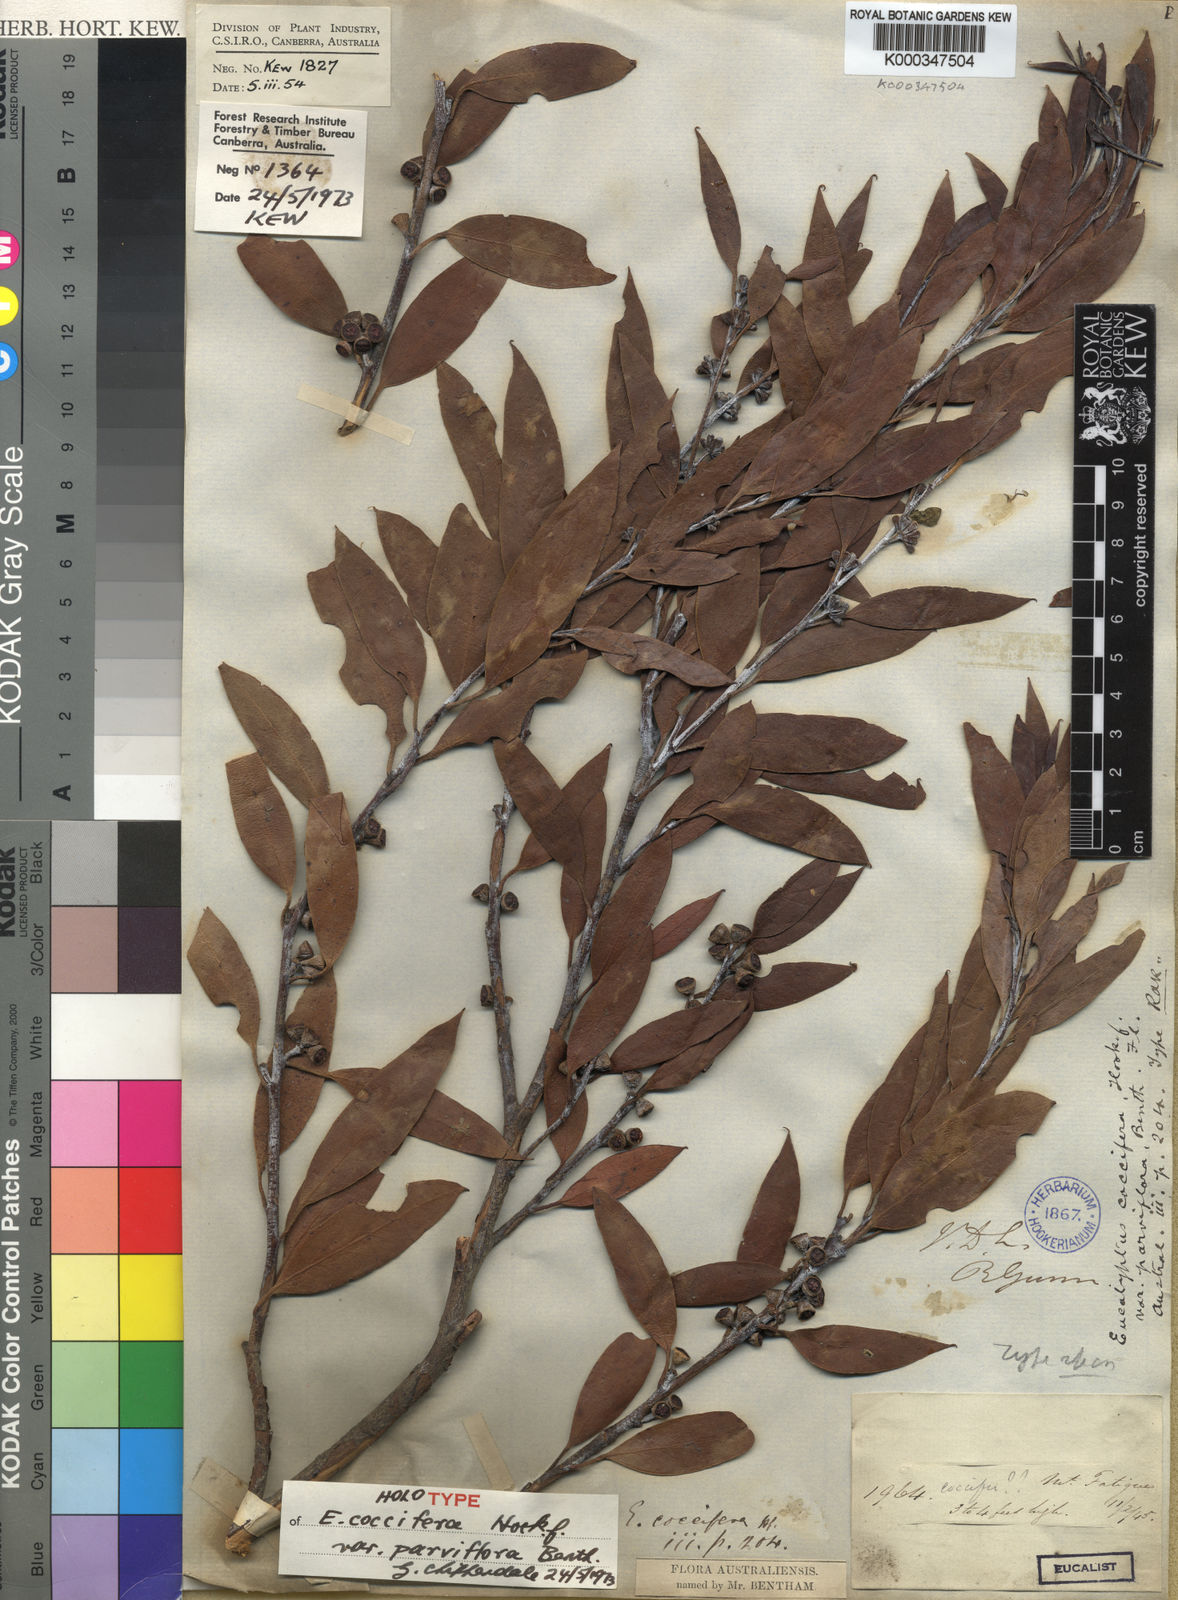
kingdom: Plantae
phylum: Tracheophyta
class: Magnoliopsida
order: Myrtales
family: Myrtaceae
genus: Eucalyptus
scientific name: Eucalyptus coccifera
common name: Tasmanian snow-gum
